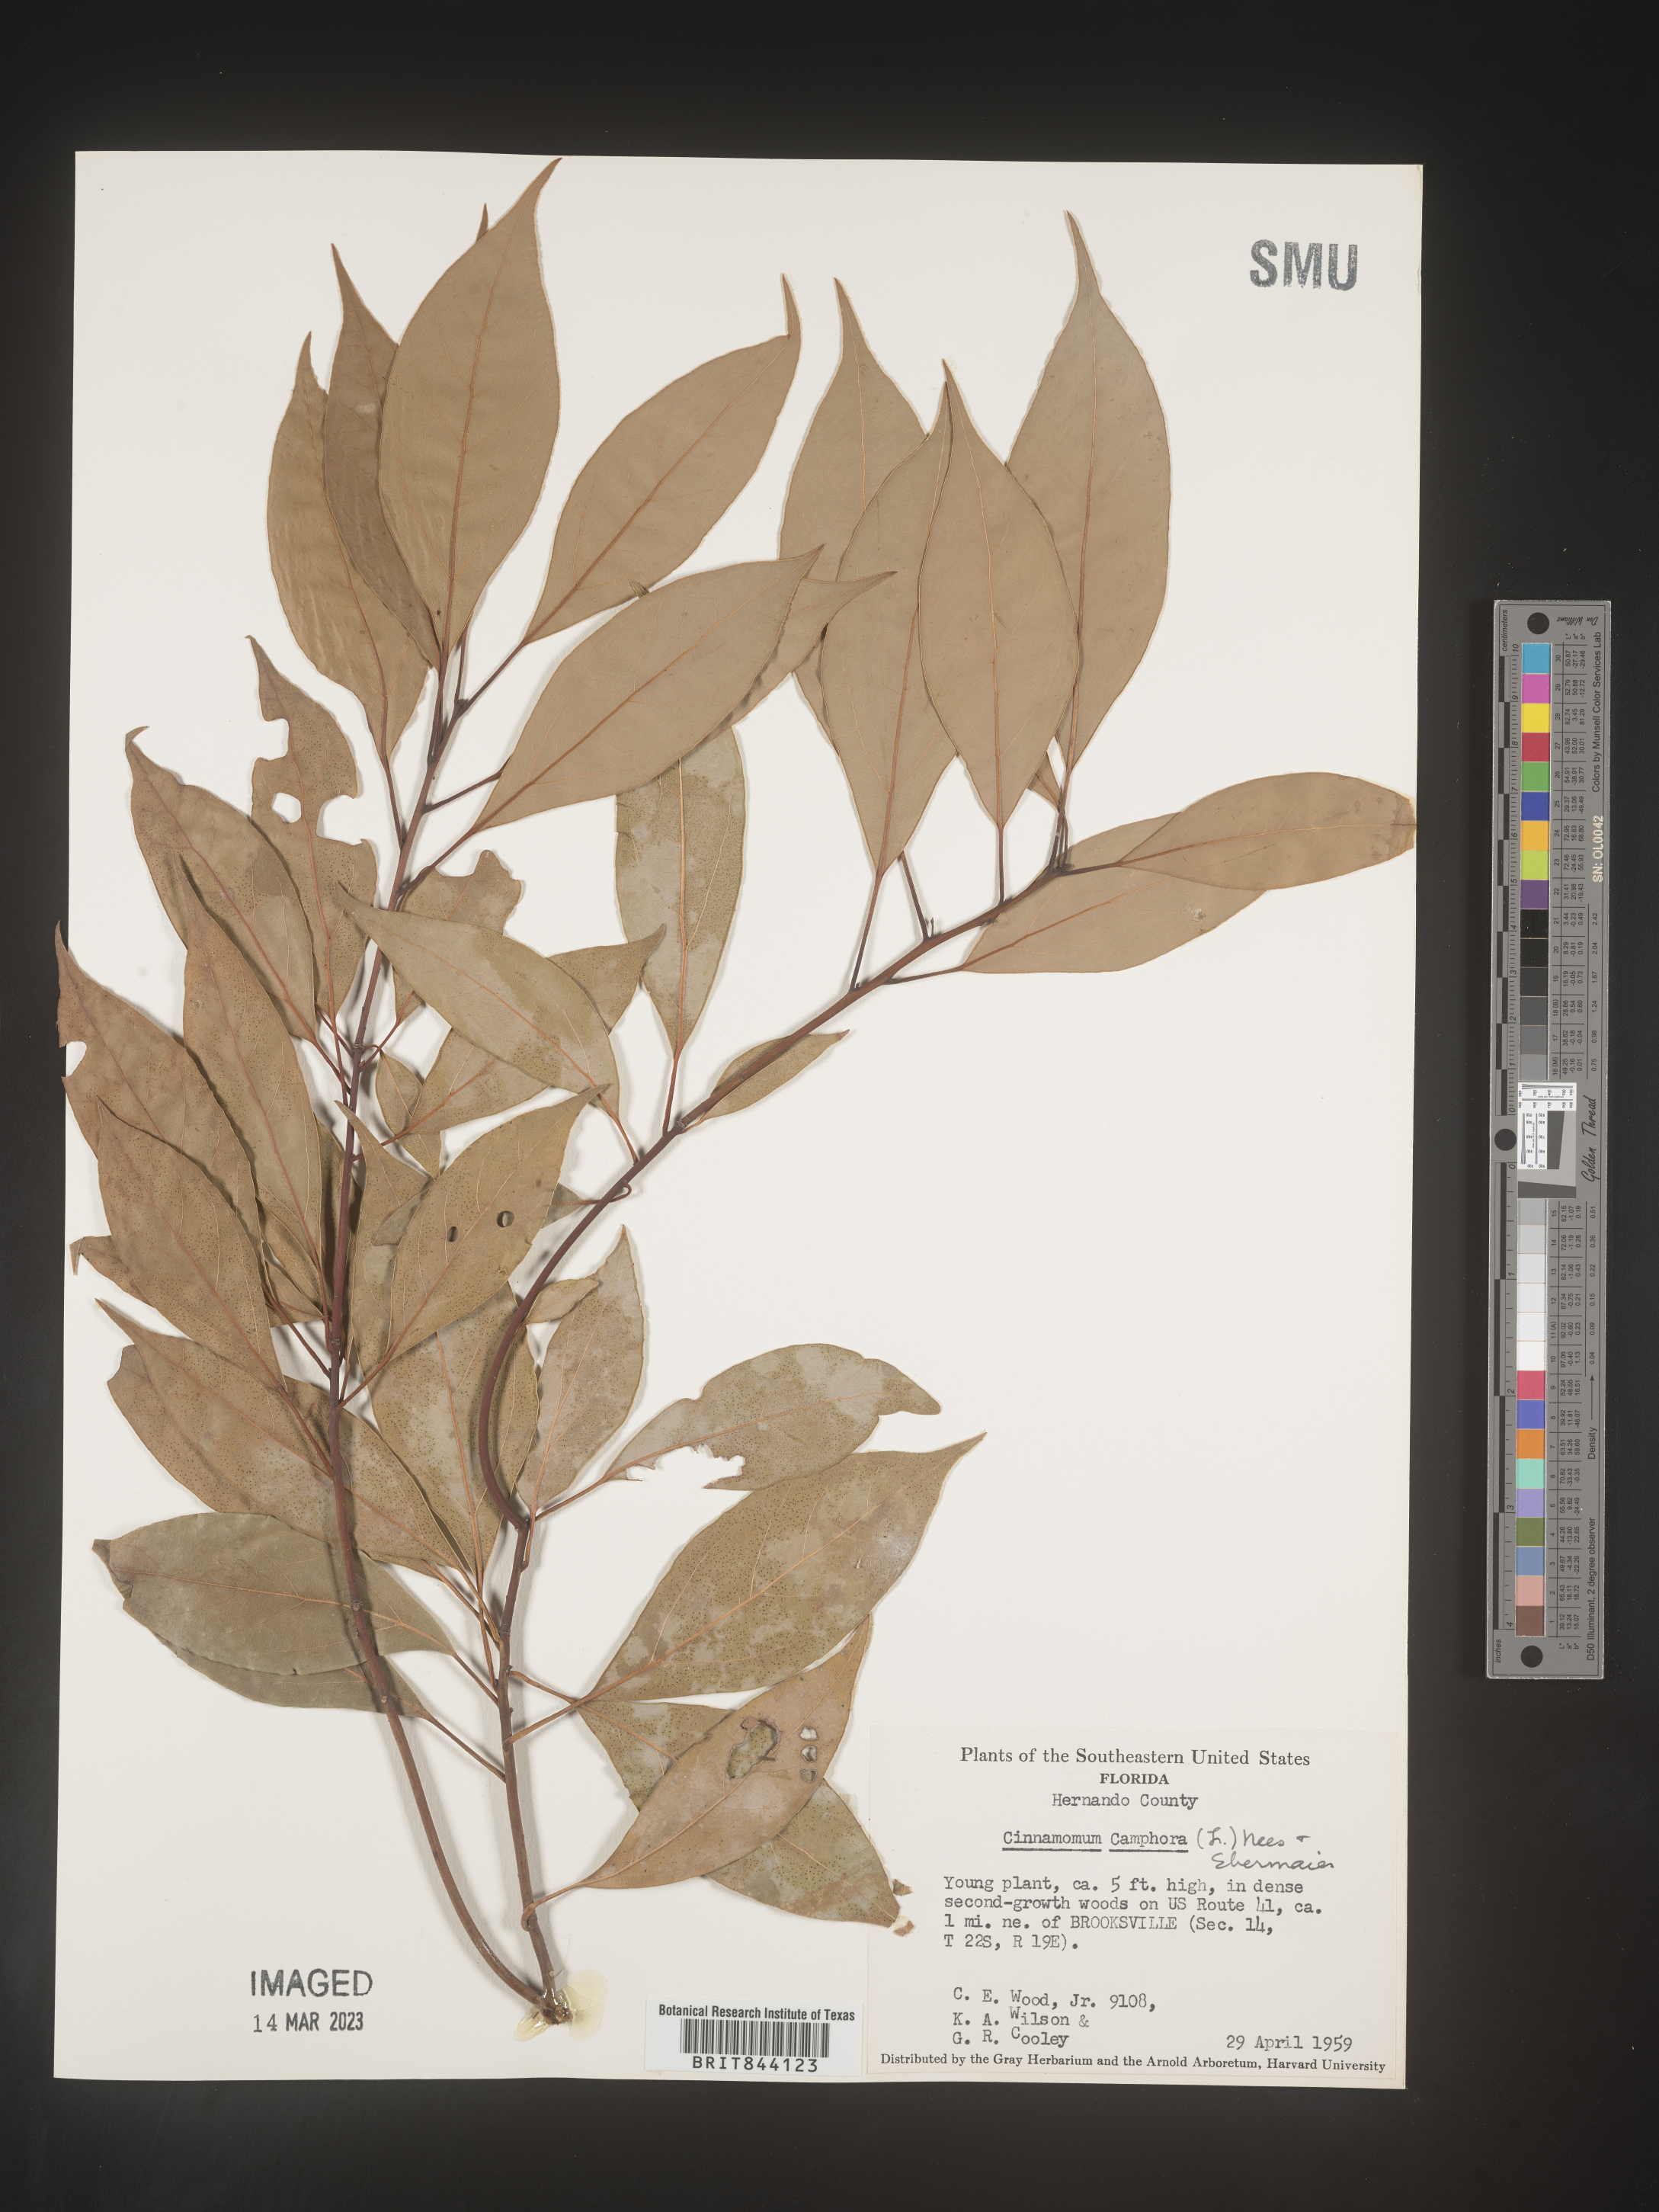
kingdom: Plantae
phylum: Tracheophyta
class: Magnoliopsida
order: Laurales
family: Lauraceae
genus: Cinnamomum
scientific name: Cinnamomum
